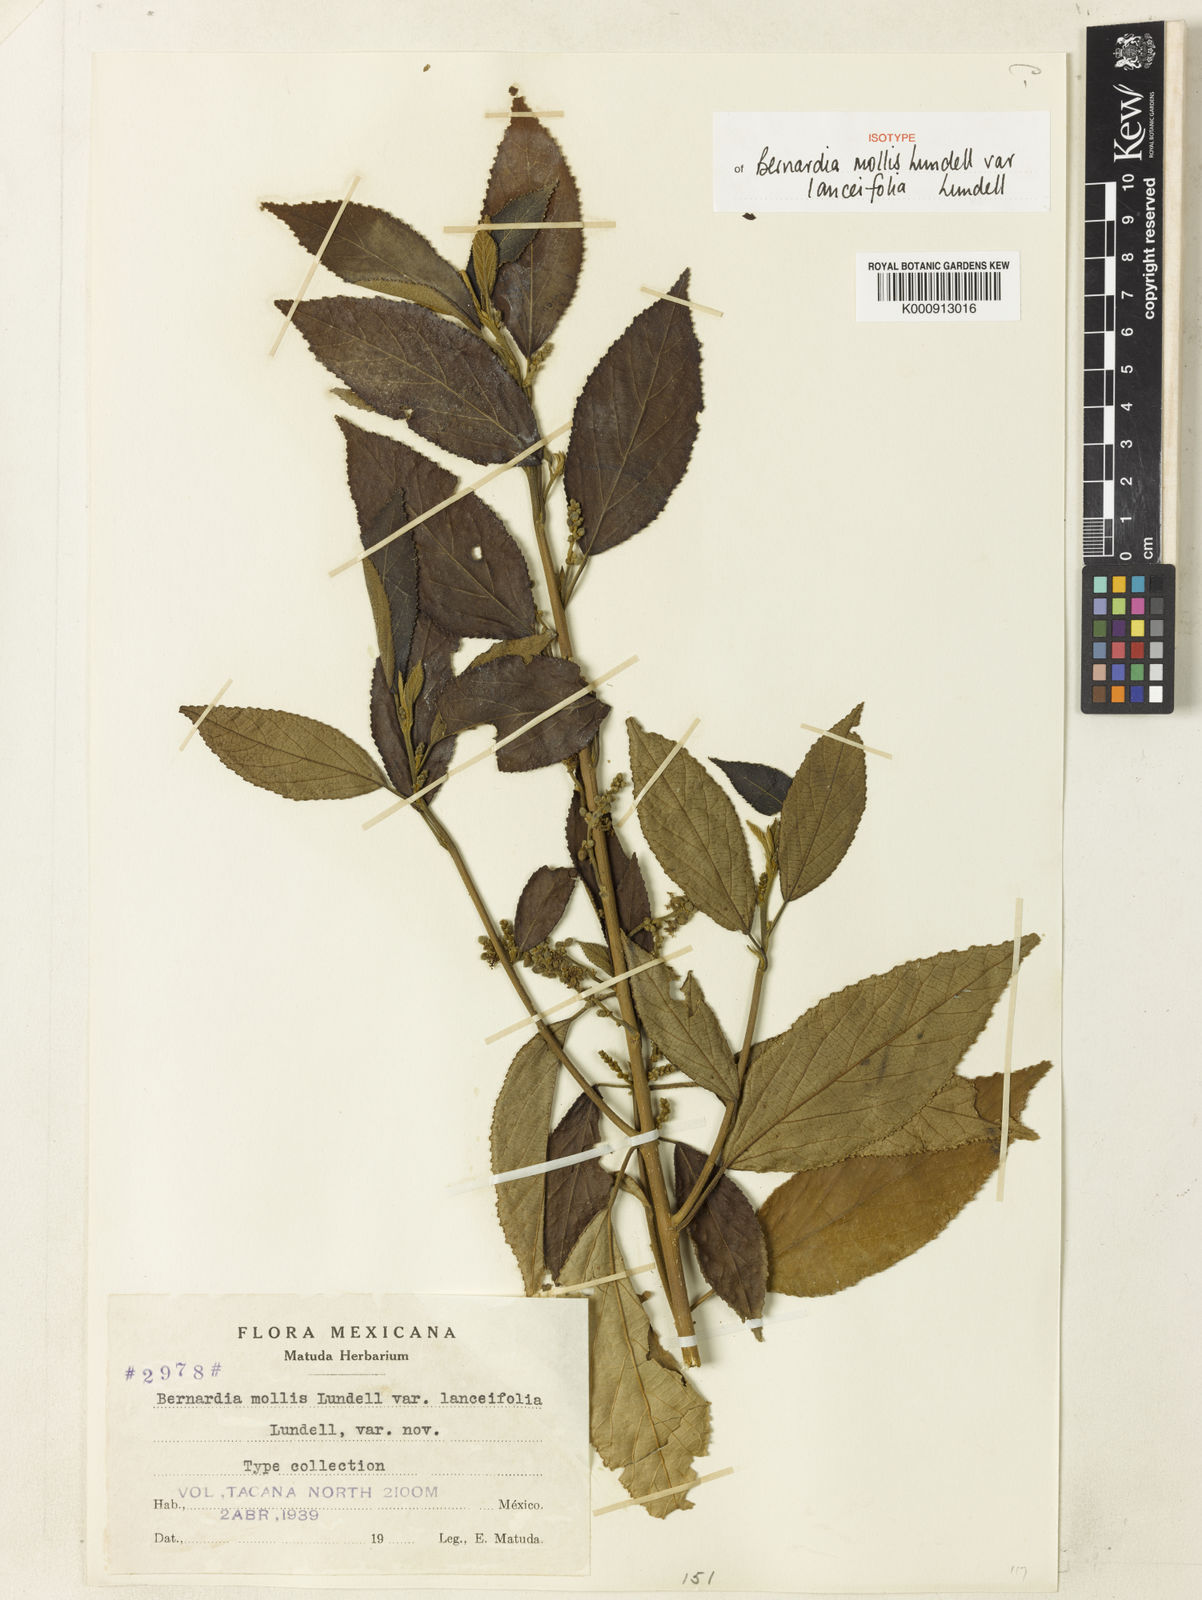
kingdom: Plantae
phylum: Tracheophyta
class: Magnoliopsida
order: Malpighiales
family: Euphorbiaceae
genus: Bernardia
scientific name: Bernardia mollis
